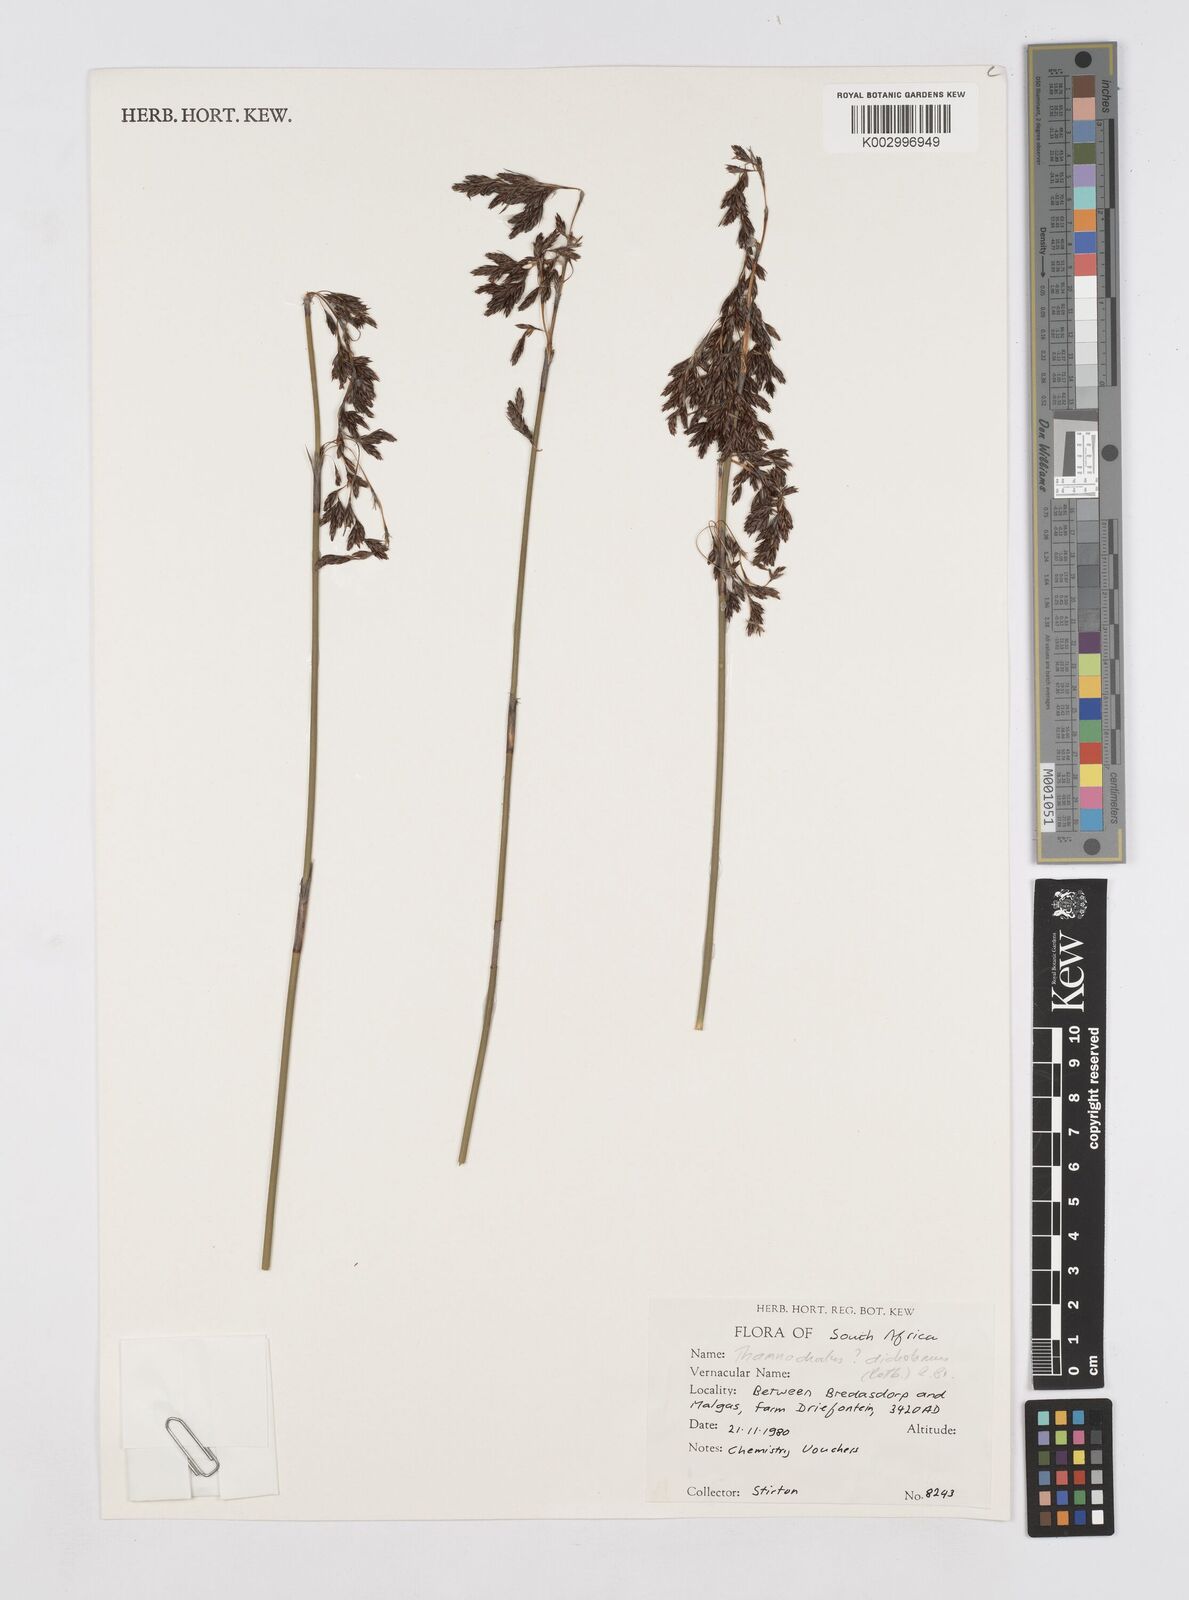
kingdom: Plantae
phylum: Tracheophyta
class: Liliopsida
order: Poales
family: Restionaceae
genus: Thamnochortus
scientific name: Thamnochortus lucens
